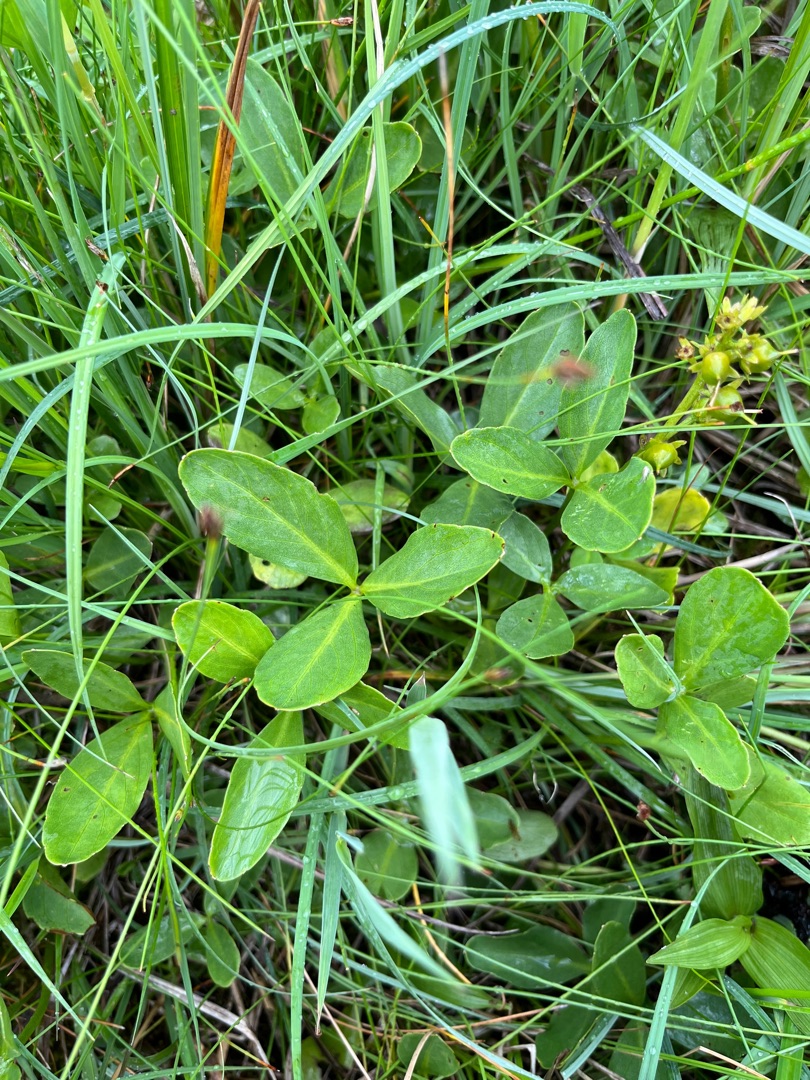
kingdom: Plantae
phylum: Tracheophyta
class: Magnoliopsida
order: Asterales
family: Menyanthaceae
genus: Menyanthes
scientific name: Menyanthes trifoliata
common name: Bukkeblad
